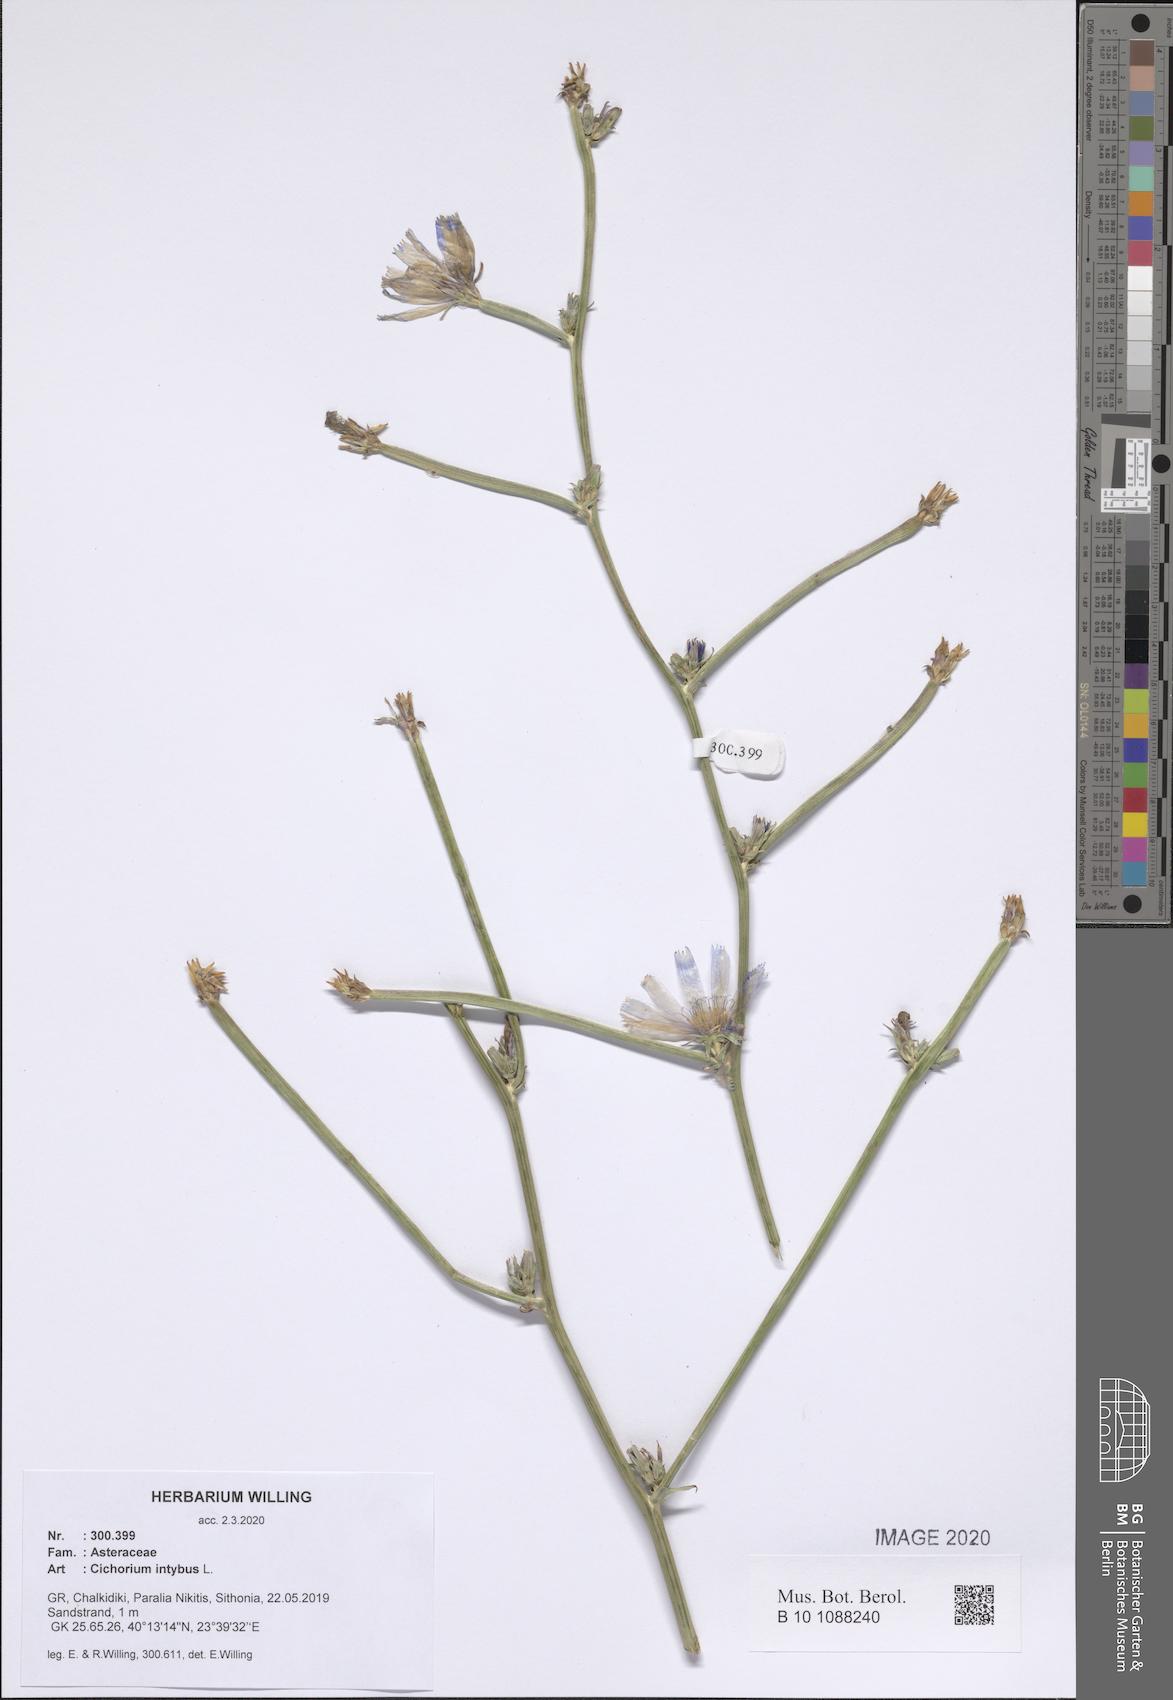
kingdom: Plantae
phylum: Tracheophyta
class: Magnoliopsida
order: Asterales
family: Asteraceae
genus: Cichorium
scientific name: Cichorium intybus
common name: Chicory
